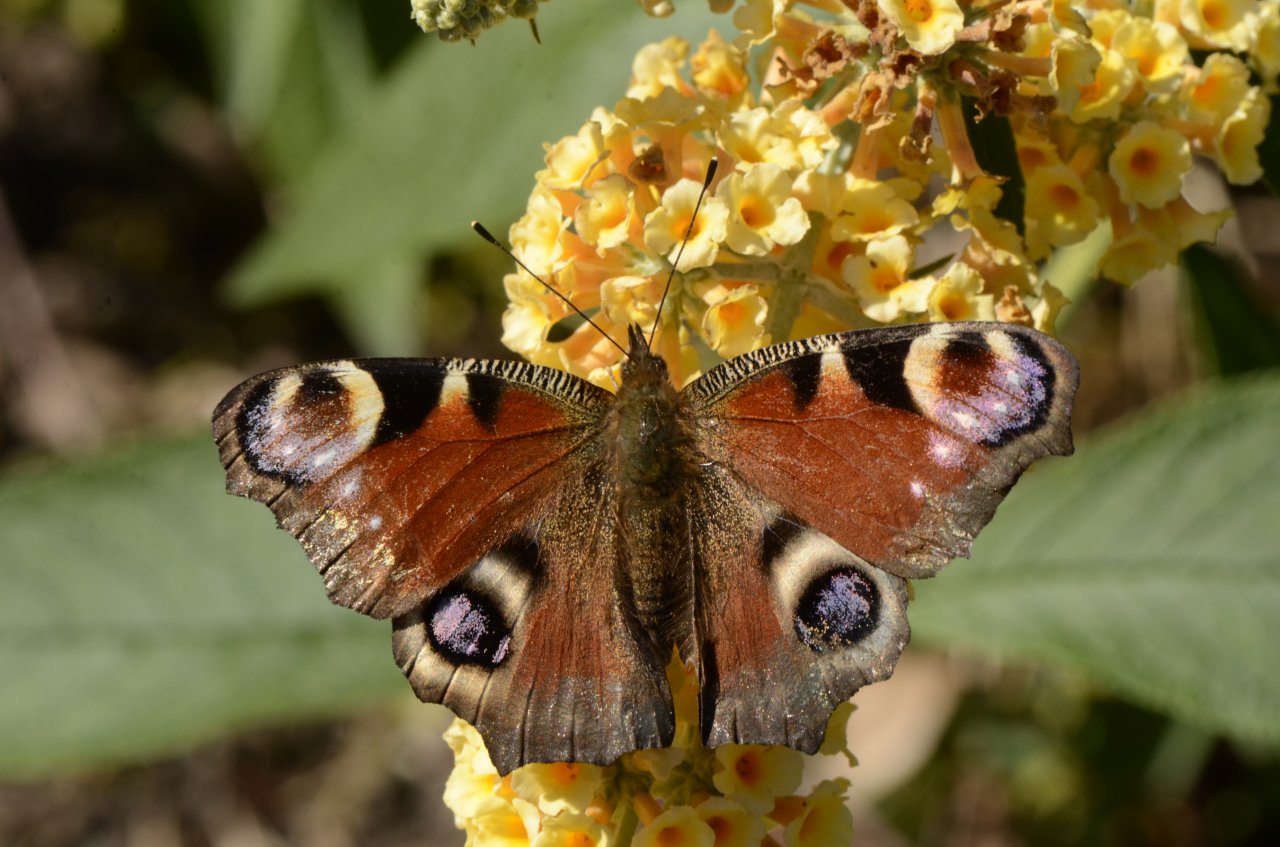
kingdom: Animalia
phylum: Arthropoda
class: Insecta
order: Lepidoptera
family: Nymphalidae
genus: Aglais
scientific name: Aglais io
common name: European Peacock
